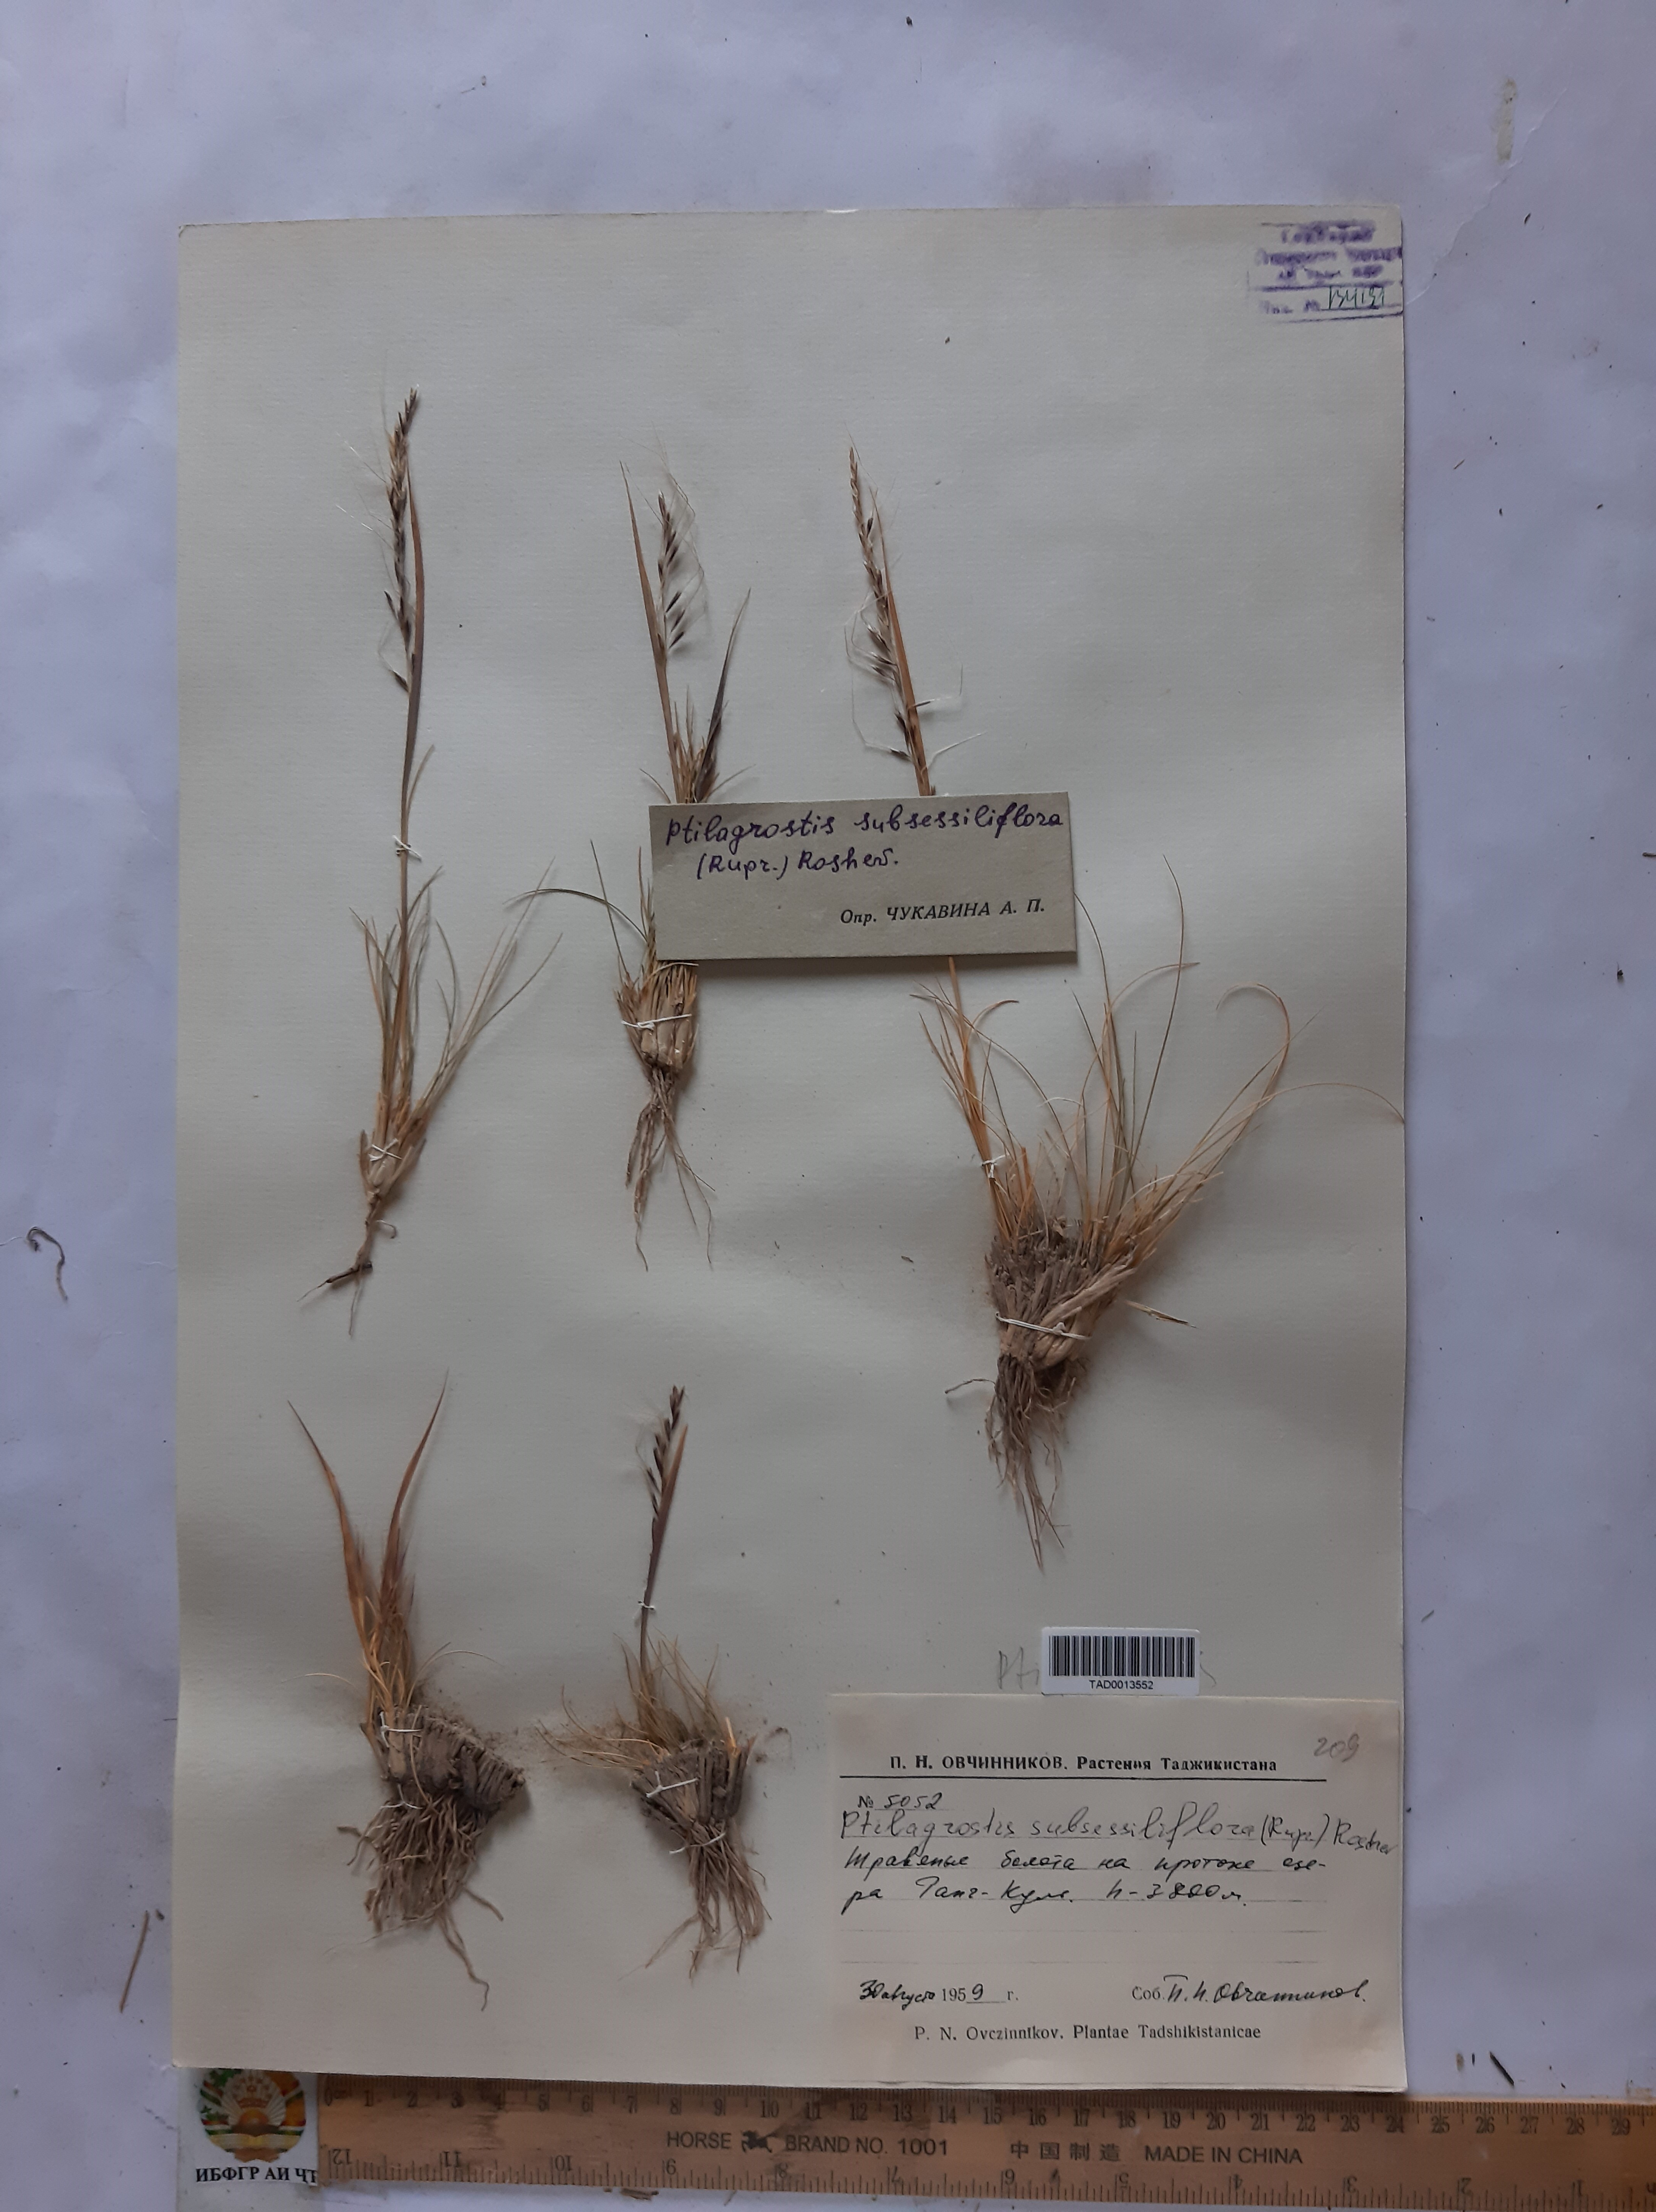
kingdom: Plantae
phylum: Tracheophyta
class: Liliopsida
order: Poales
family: Poaceae
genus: Stipa
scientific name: Stipa subsessiliflora
